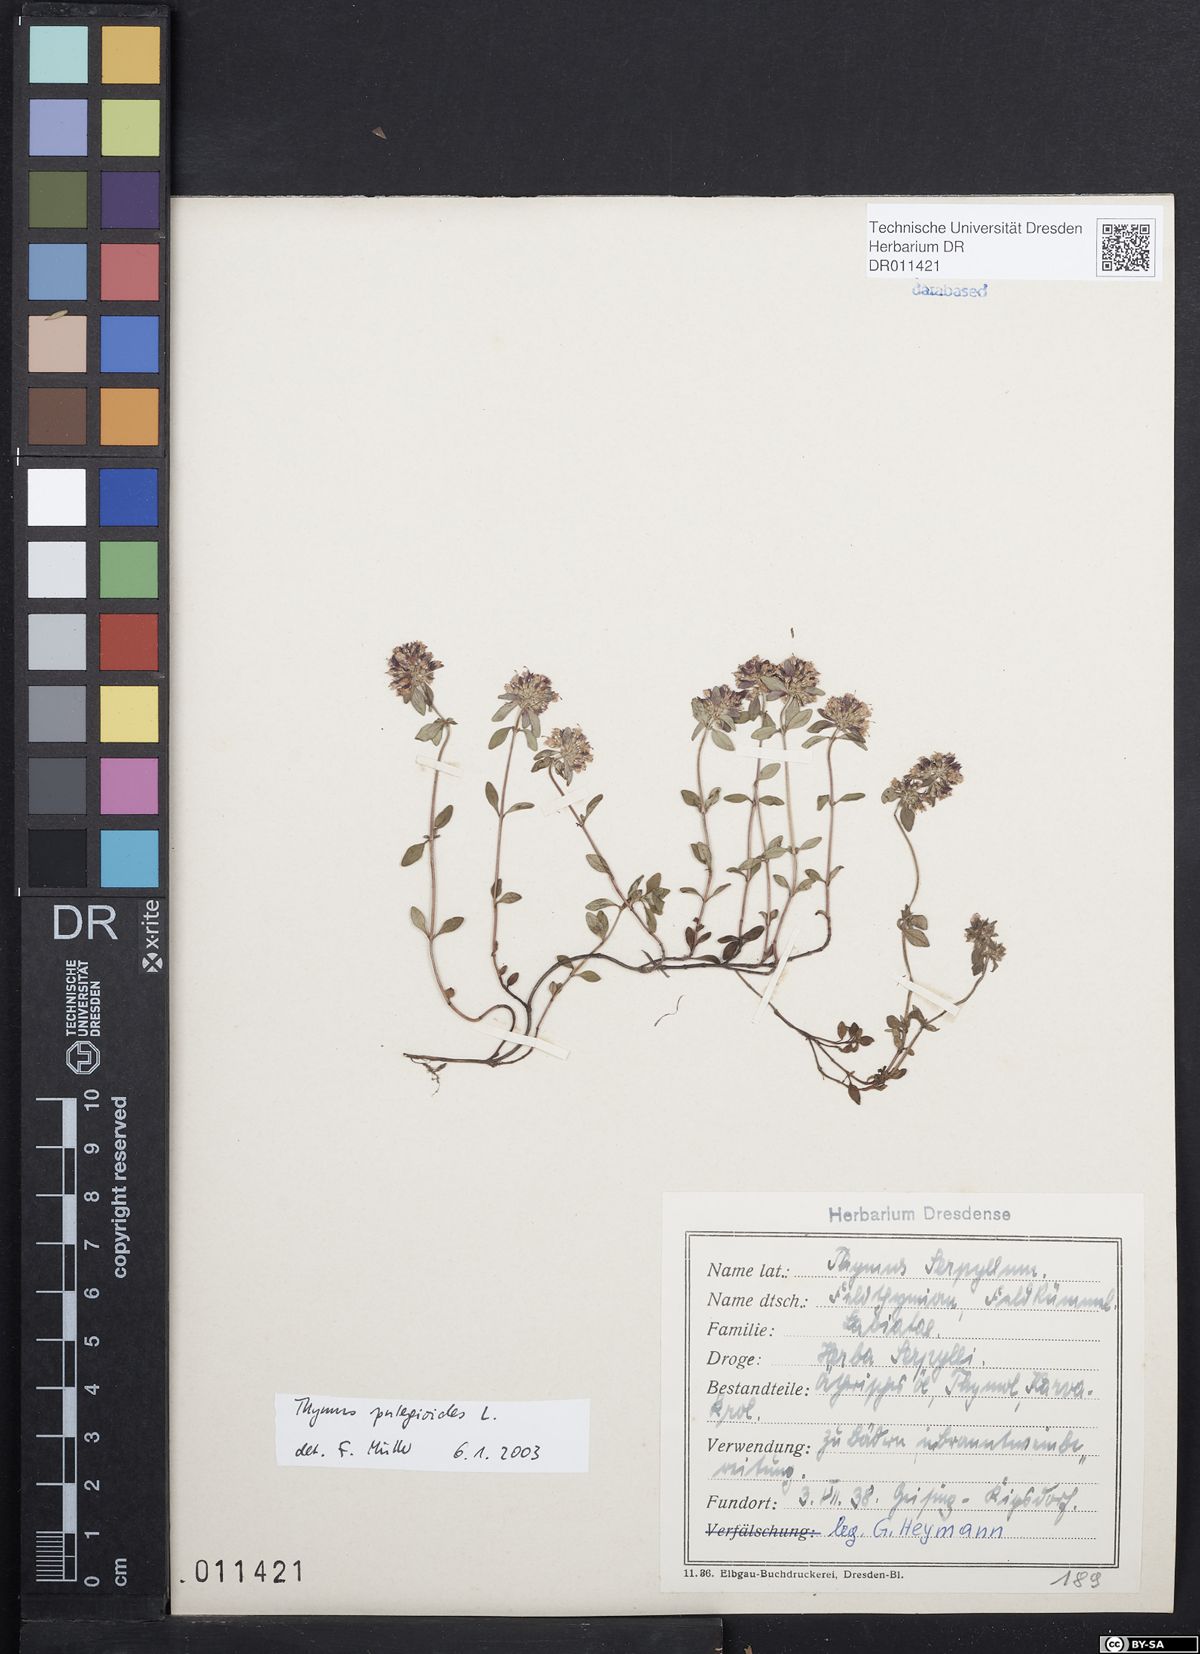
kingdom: Plantae
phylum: Tracheophyta
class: Magnoliopsida
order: Lamiales
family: Lamiaceae
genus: Thymus
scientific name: Thymus pulegioides
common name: Large thyme
